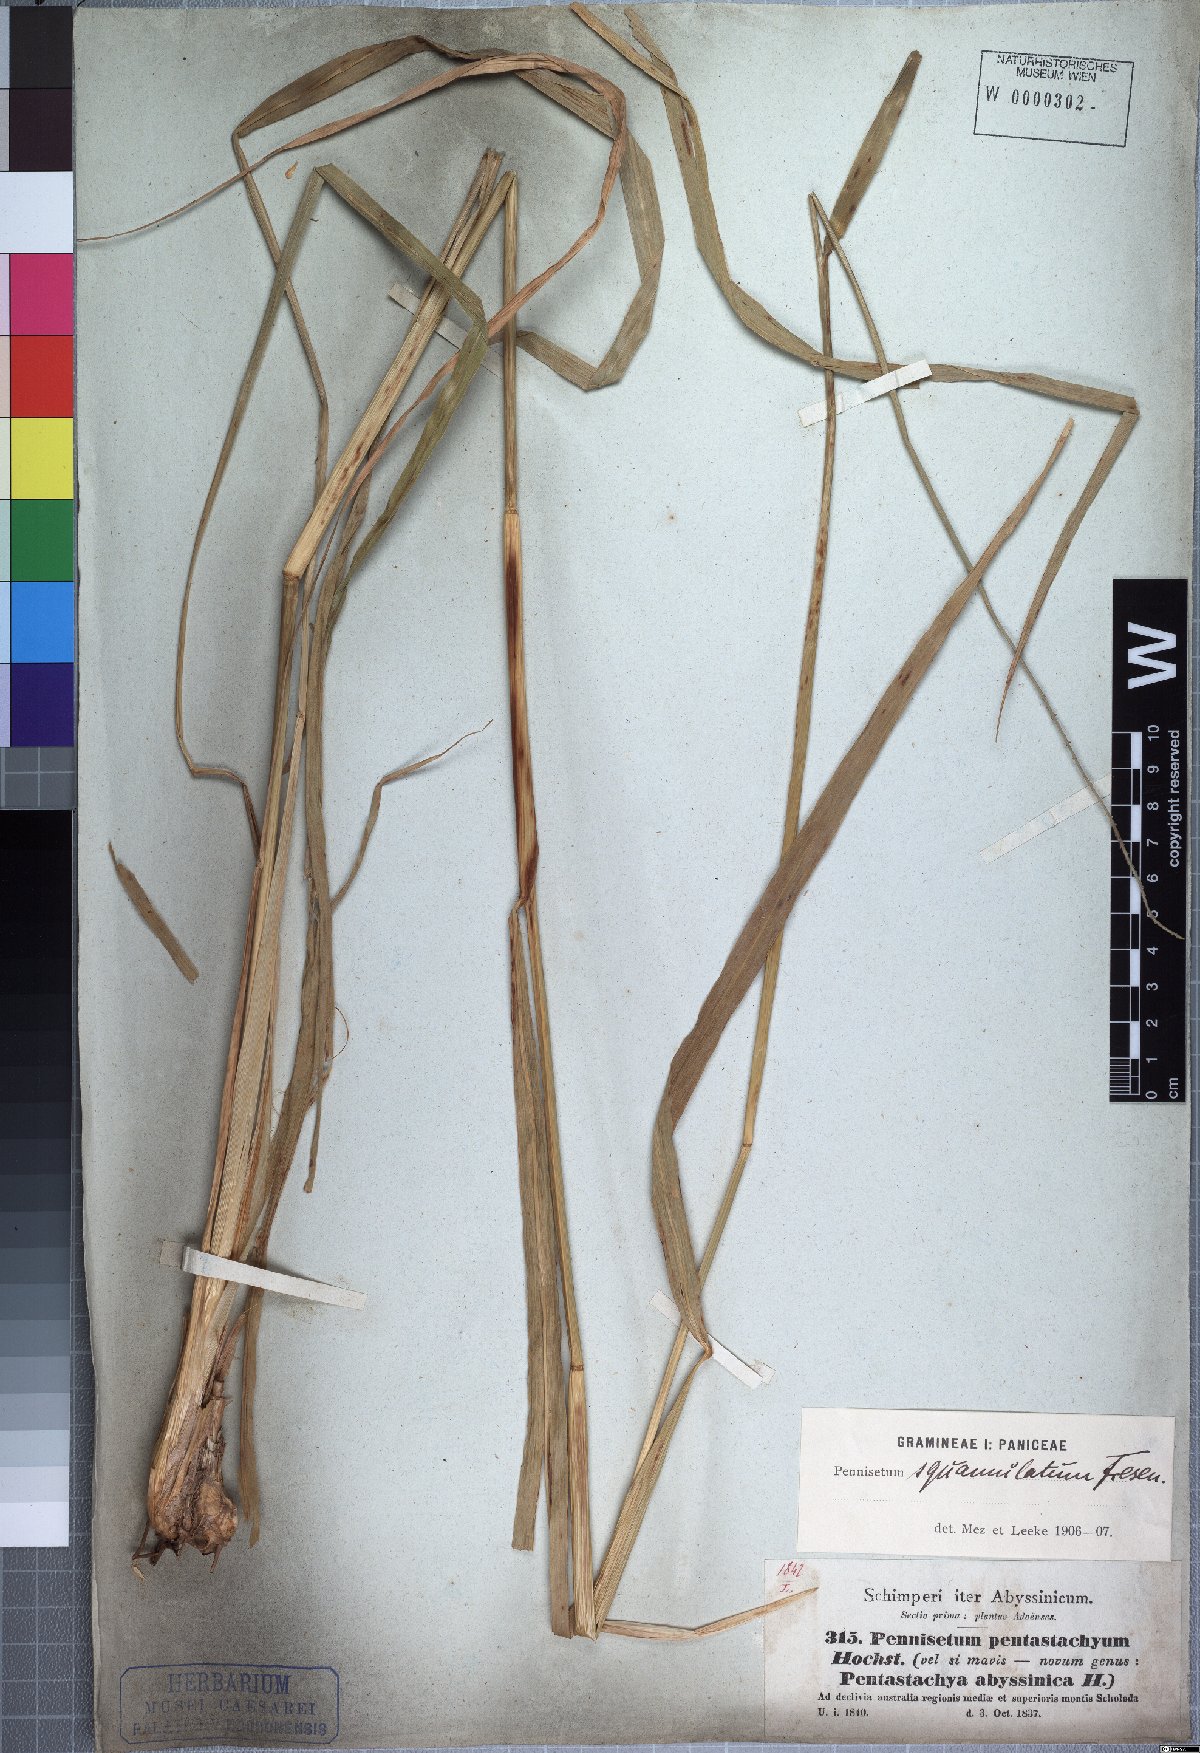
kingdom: Plantae
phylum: Tracheophyta
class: Liliopsida
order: Poales
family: Poaceae
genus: Cenchrus
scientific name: Cenchrus squamulatus
